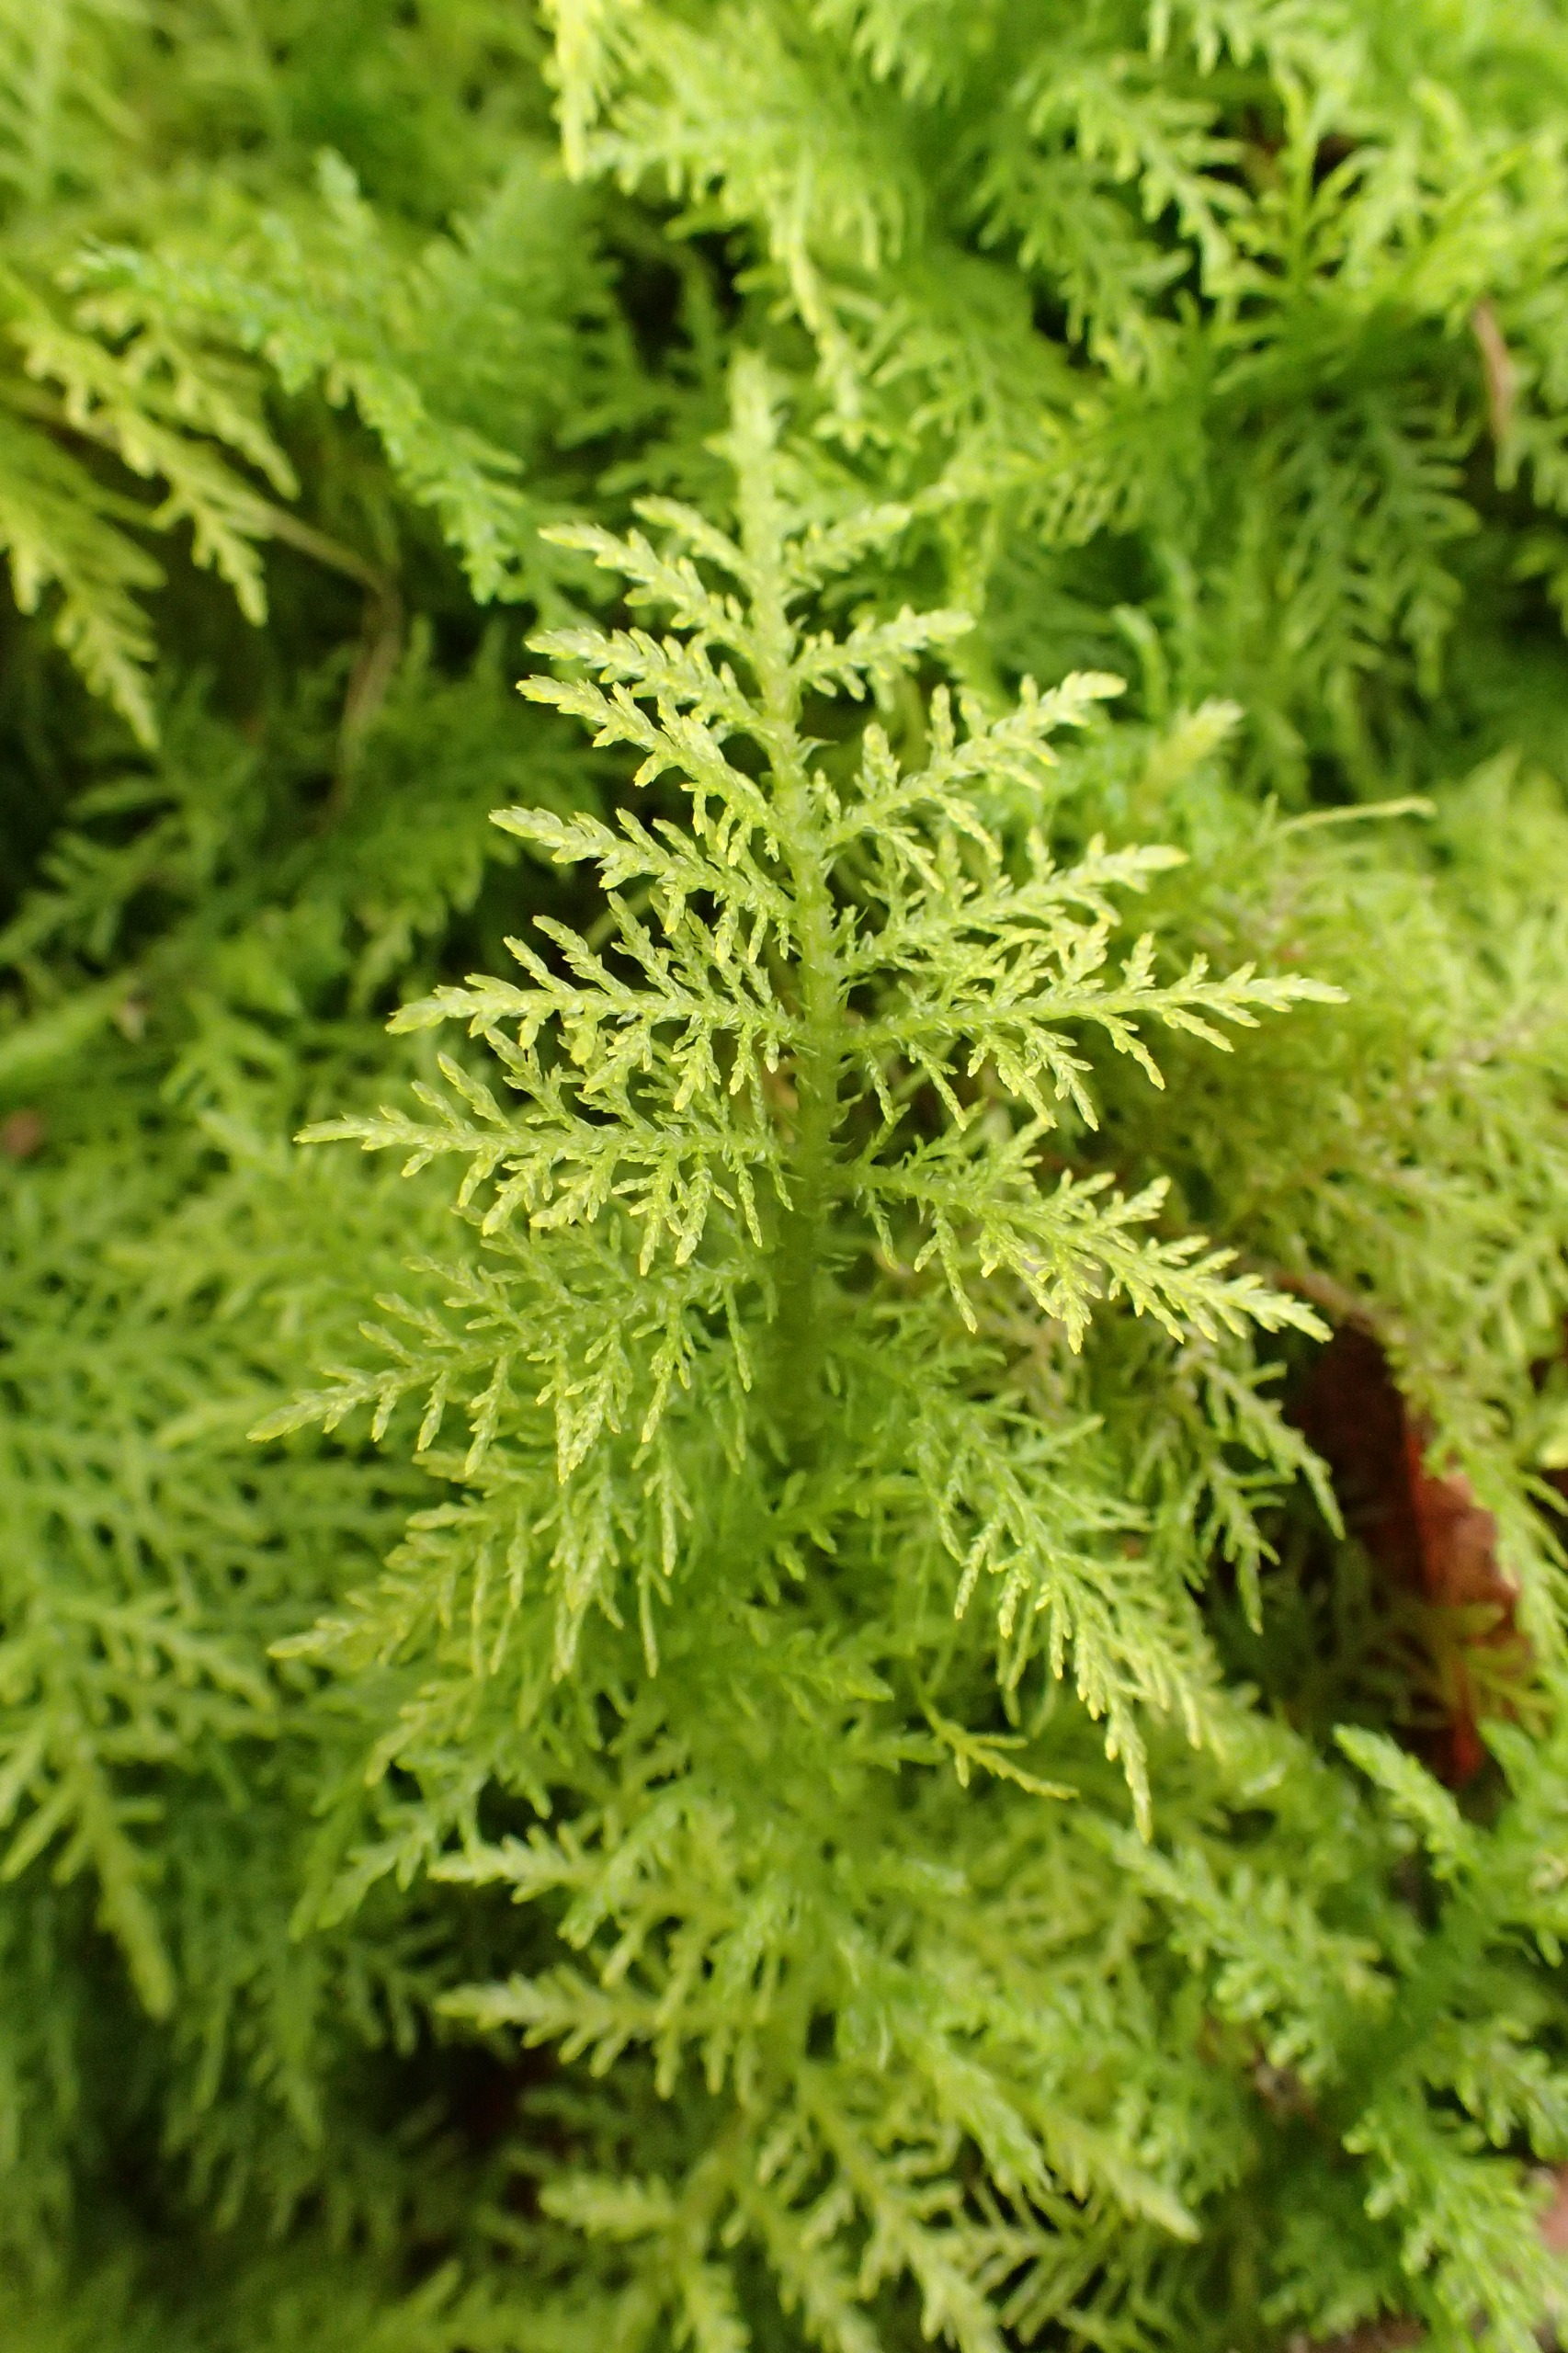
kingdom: Plantae
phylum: Bryophyta
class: Bryopsida
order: Hypnales
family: Thuidiaceae
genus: Thuidium
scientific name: Thuidium tamariscinum
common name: Pryd-bregnemos
